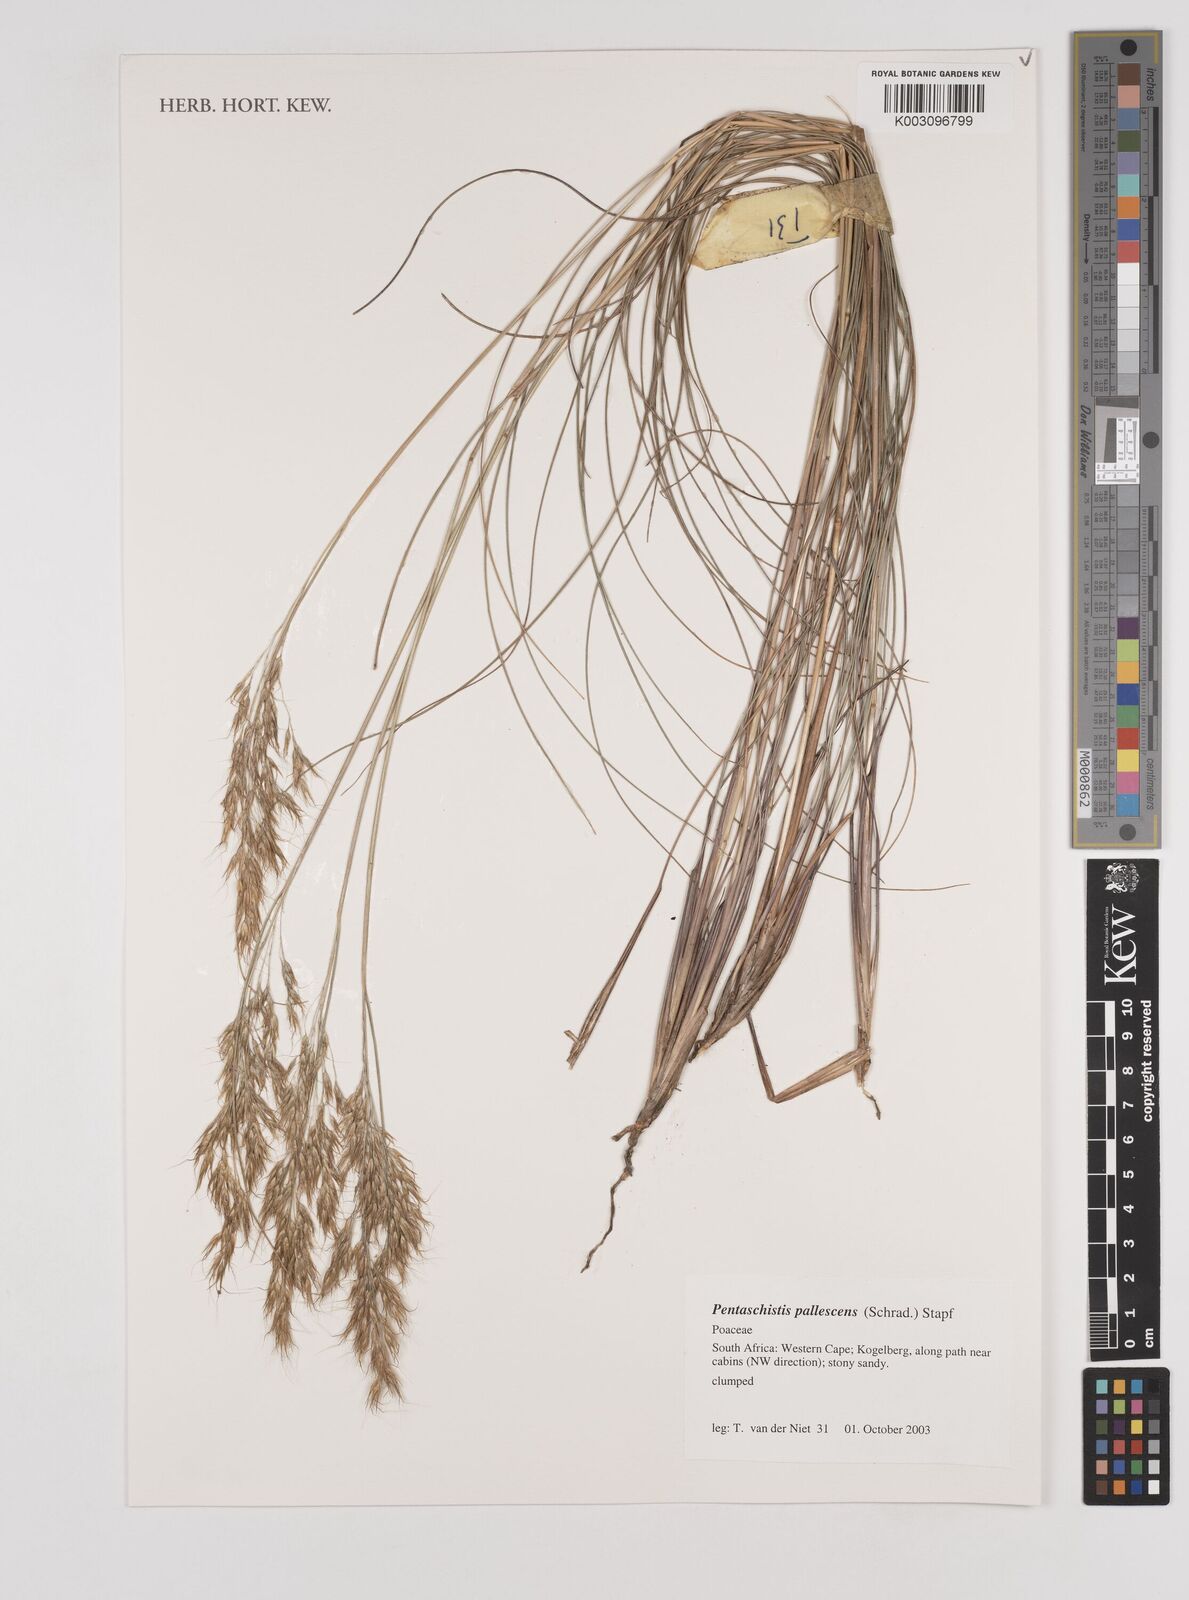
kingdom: Plantae
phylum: Tracheophyta
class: Liliopsida
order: Poales
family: Poaceae
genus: Pentameris
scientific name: Pentameris pallescens
